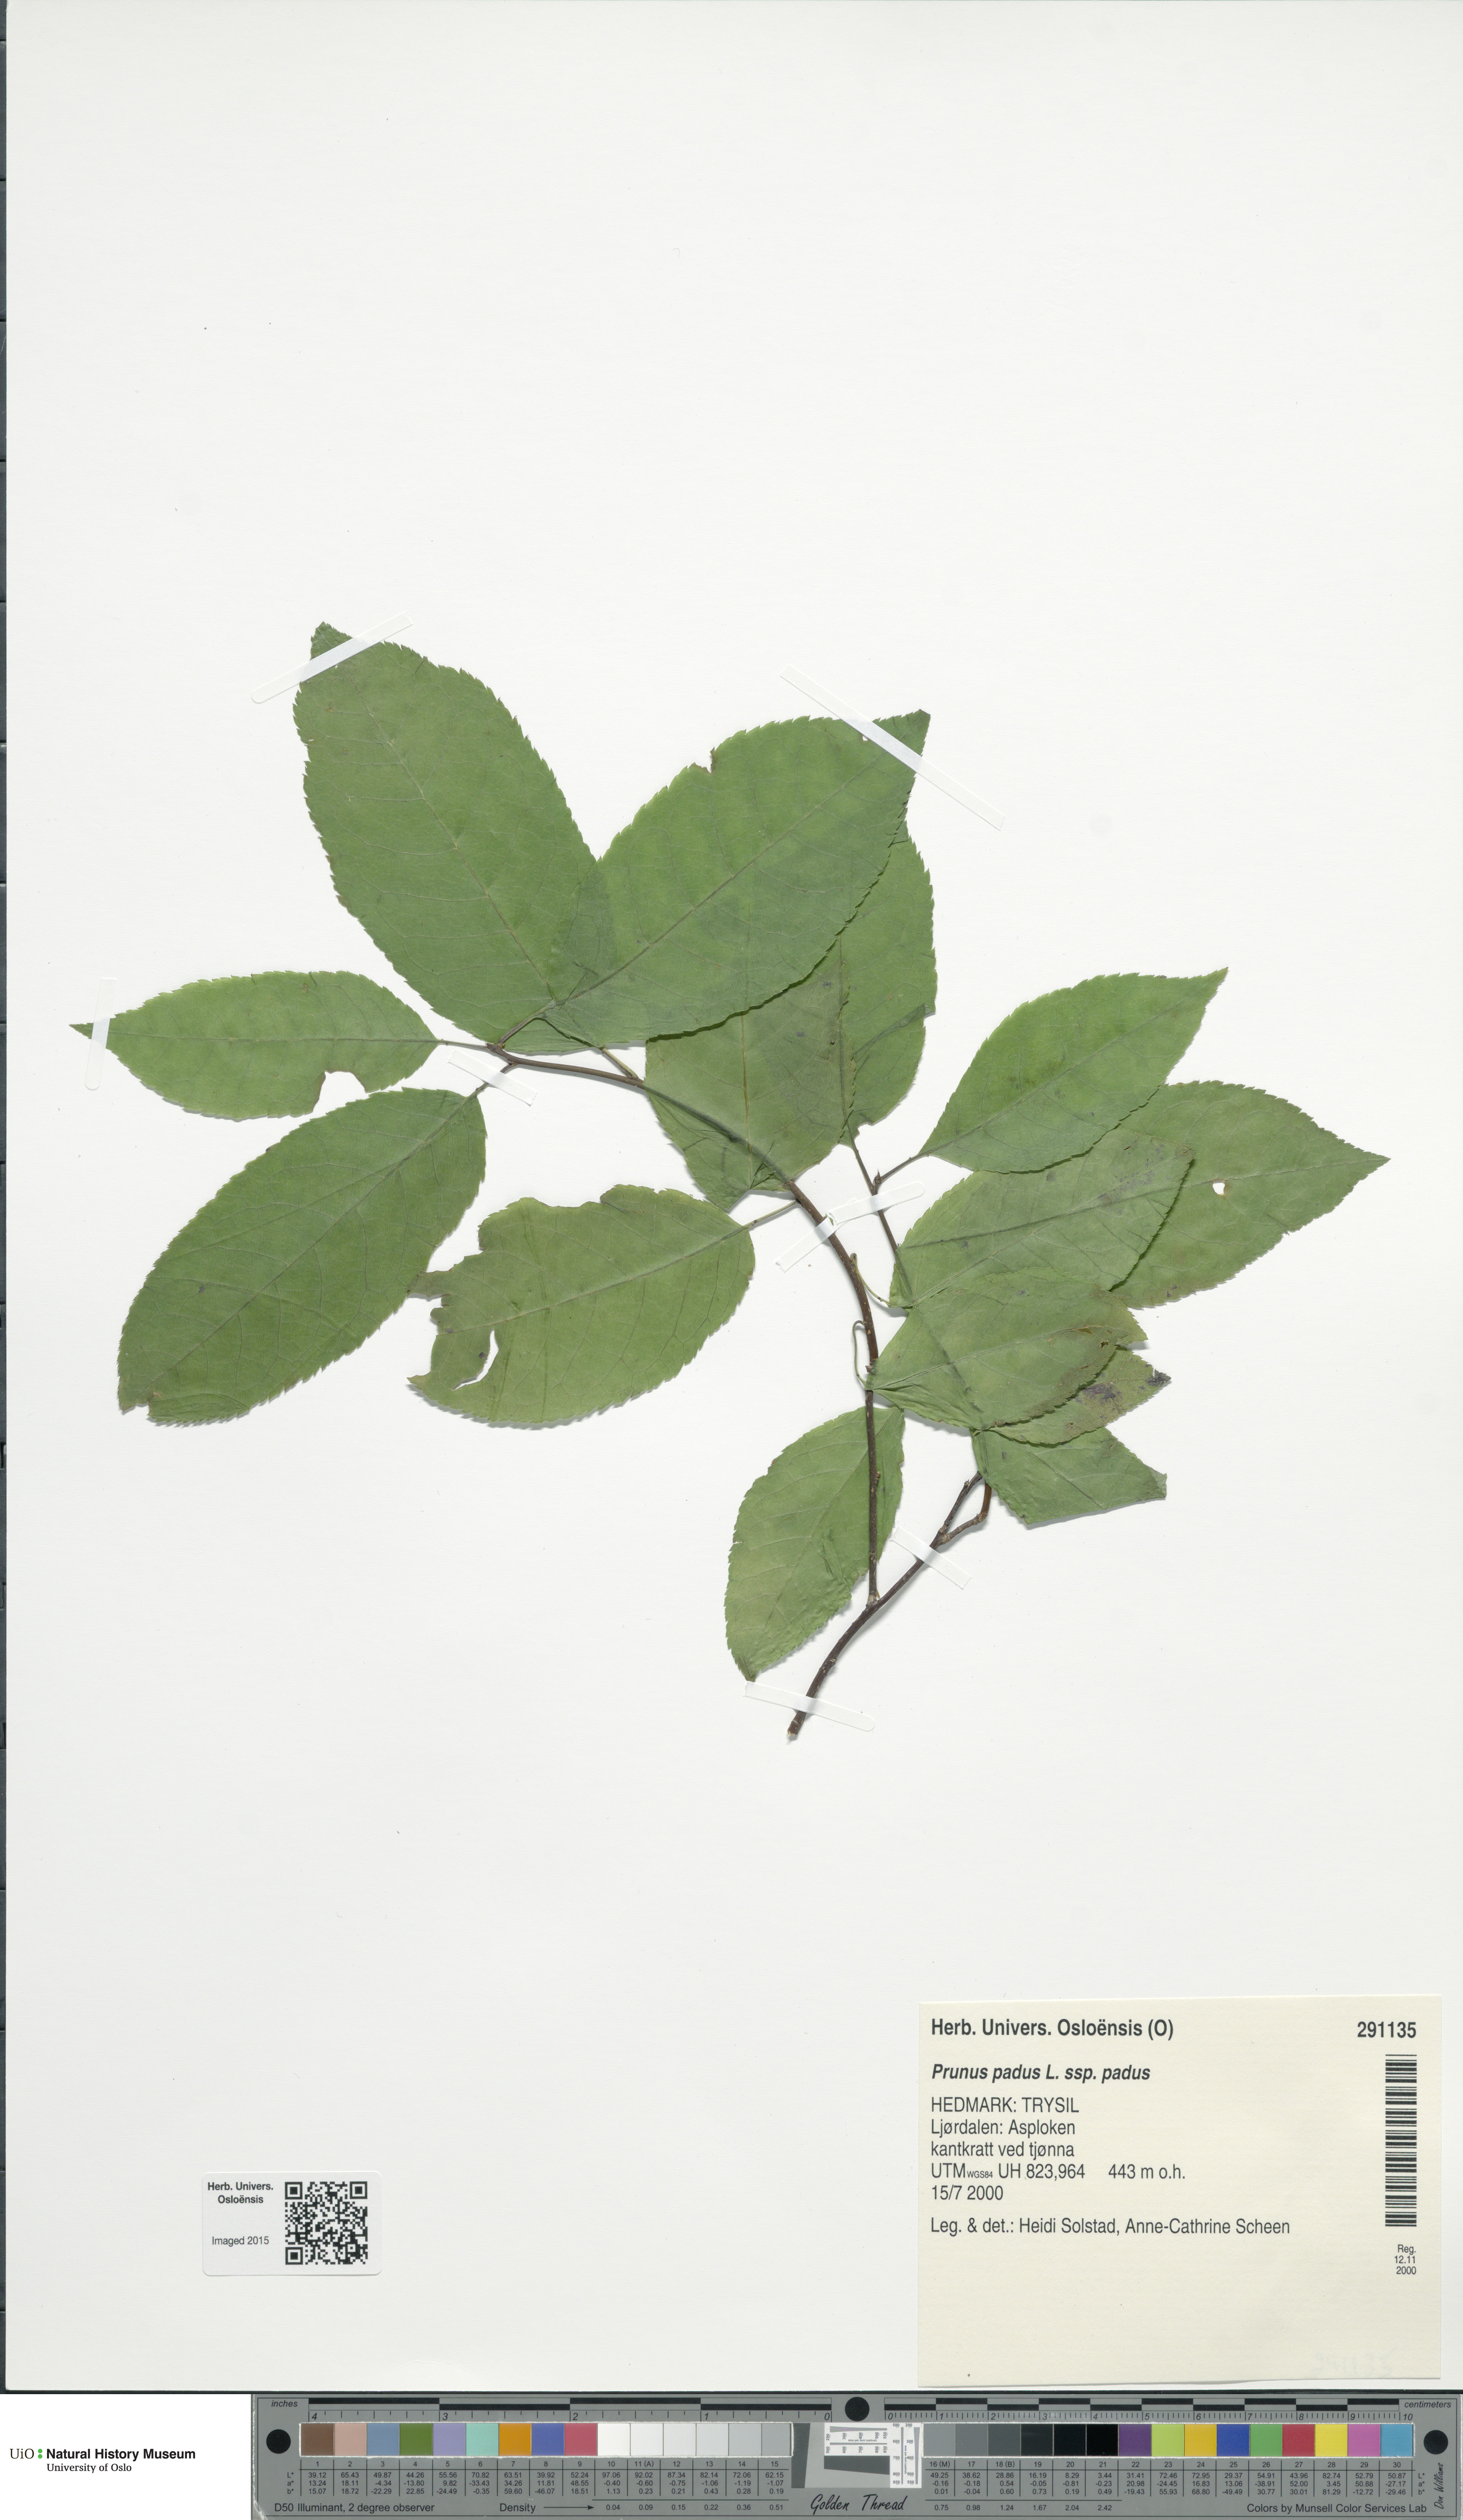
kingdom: Plantae
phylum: Tracheophyta
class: Magnoliopsida
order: Rosales
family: Rosaceae
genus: Prunus
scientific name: Prunus padus
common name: Bird cherry
